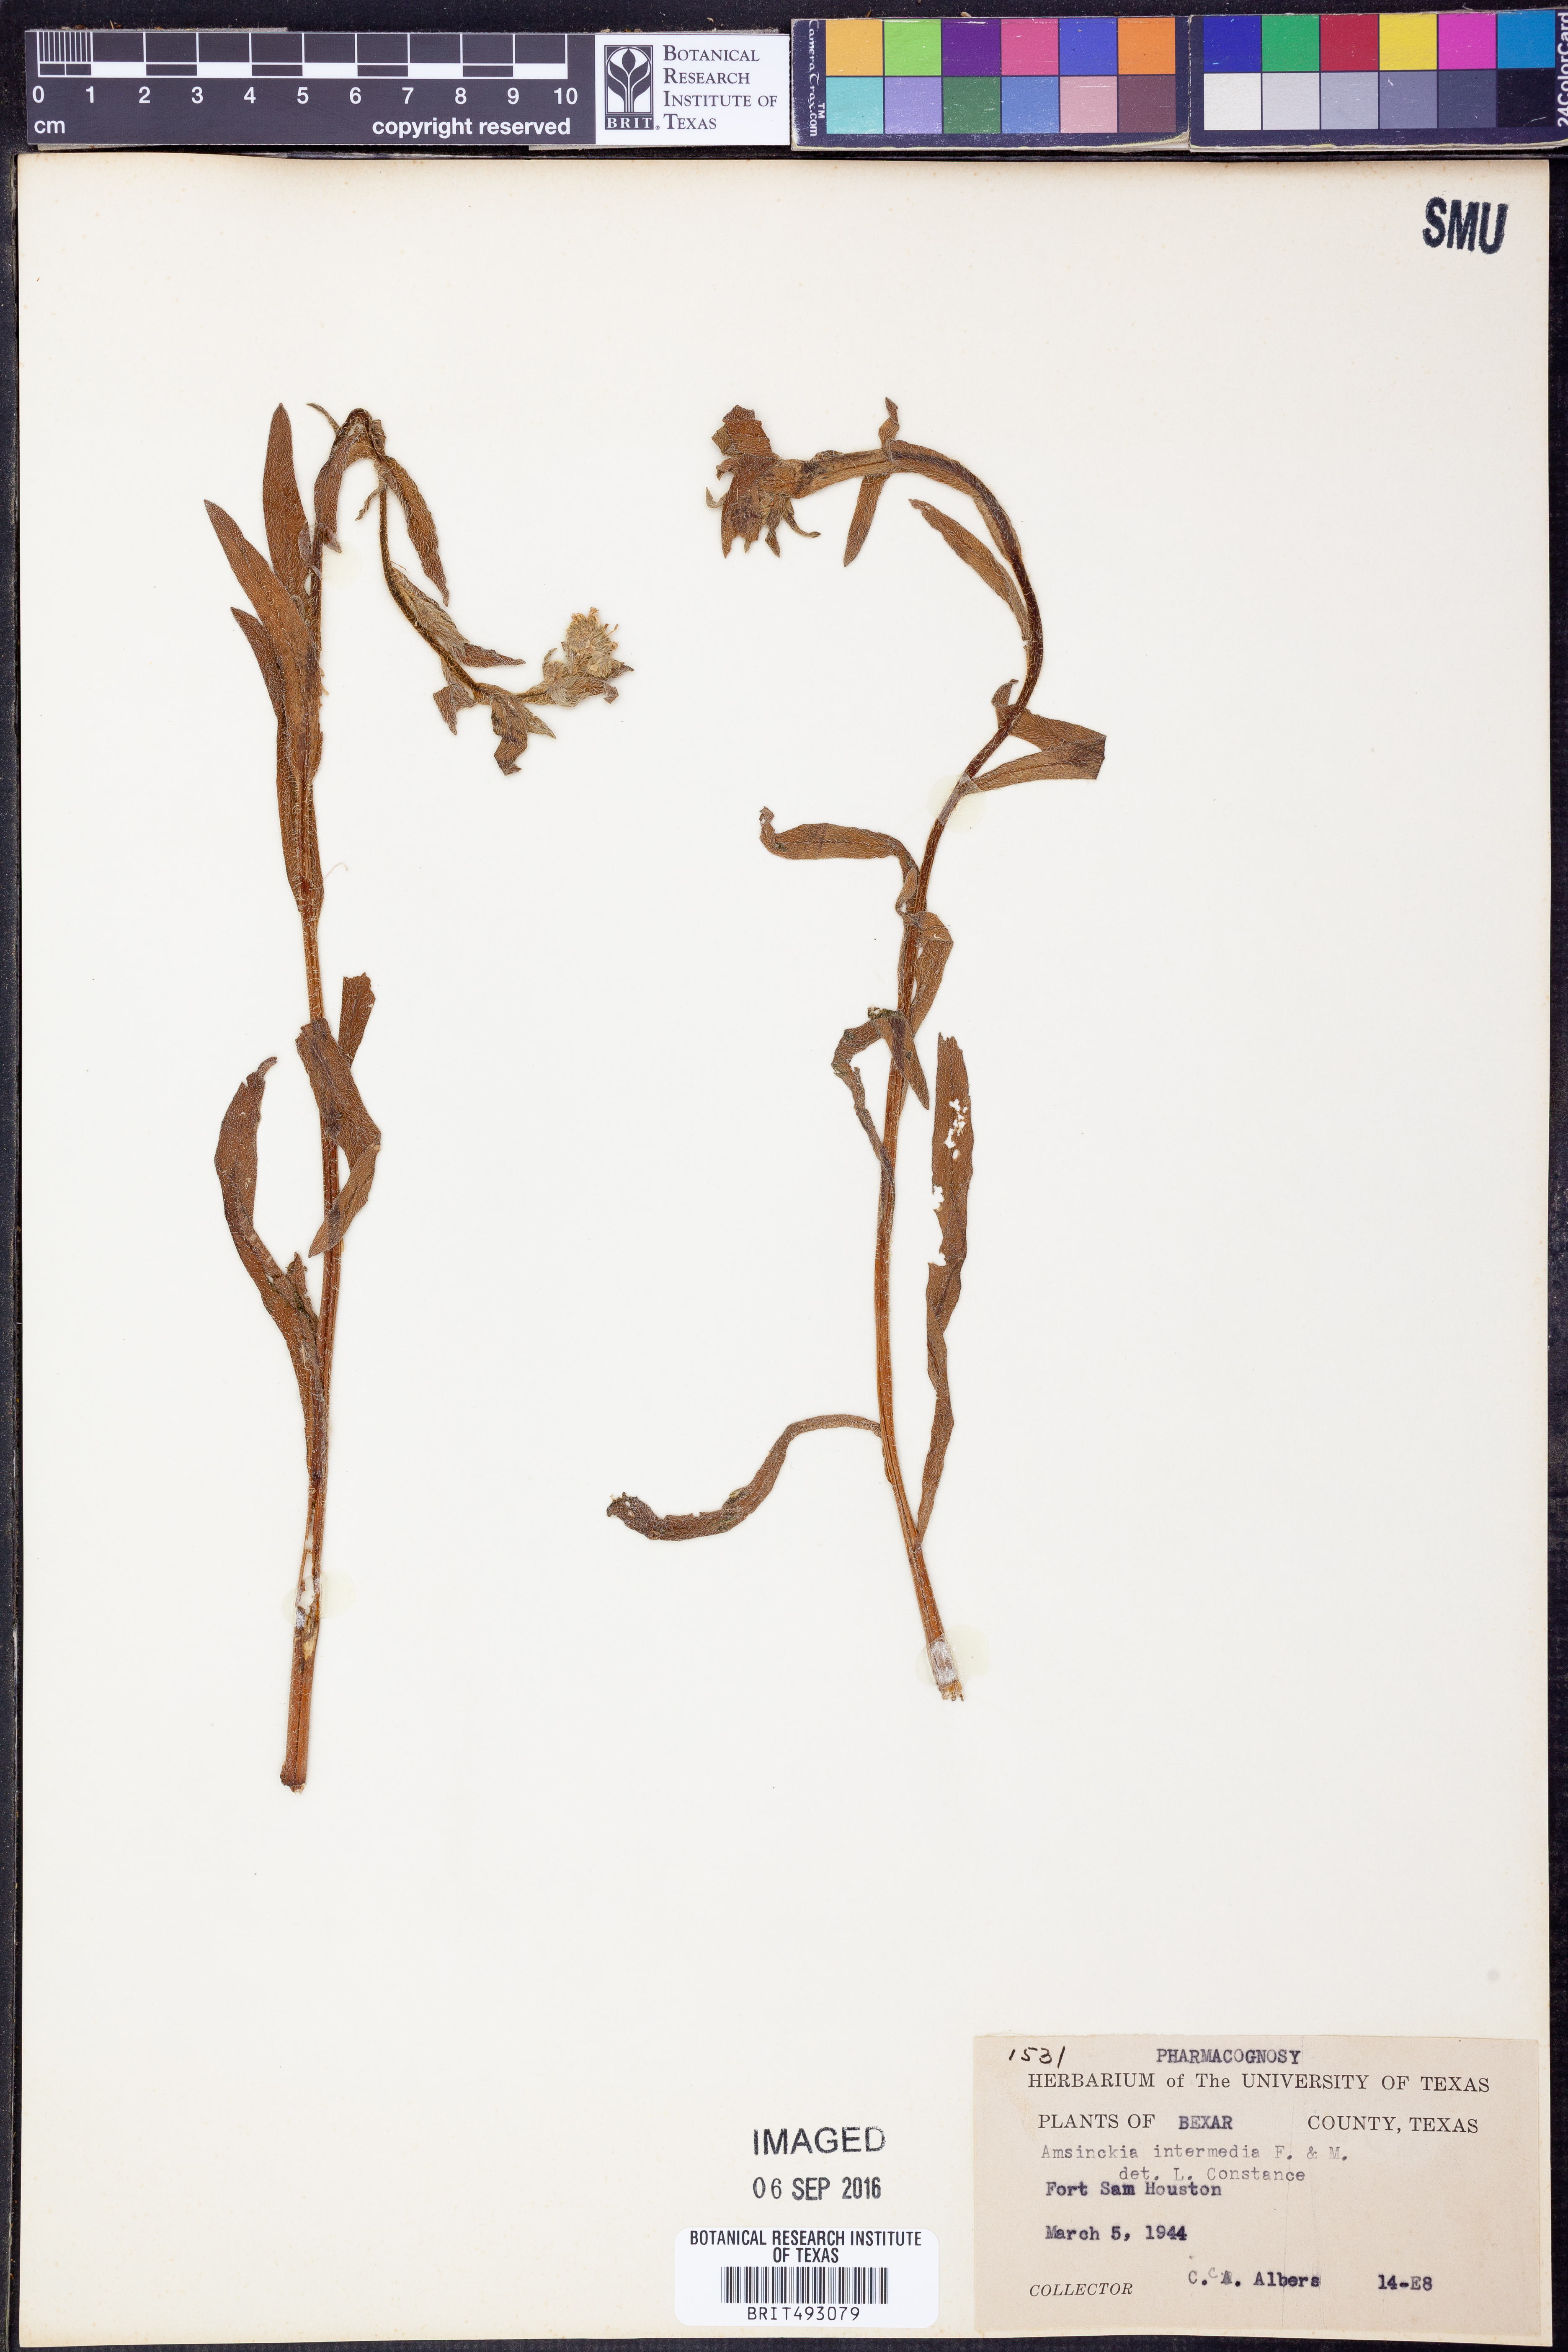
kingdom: Plantae
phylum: Tracheophyta
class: Magnoliopsida
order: Boraginales
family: Boraginaceae
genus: Amsinckia
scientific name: Amsinckia menziesii
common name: Menzies' fiddleneck
